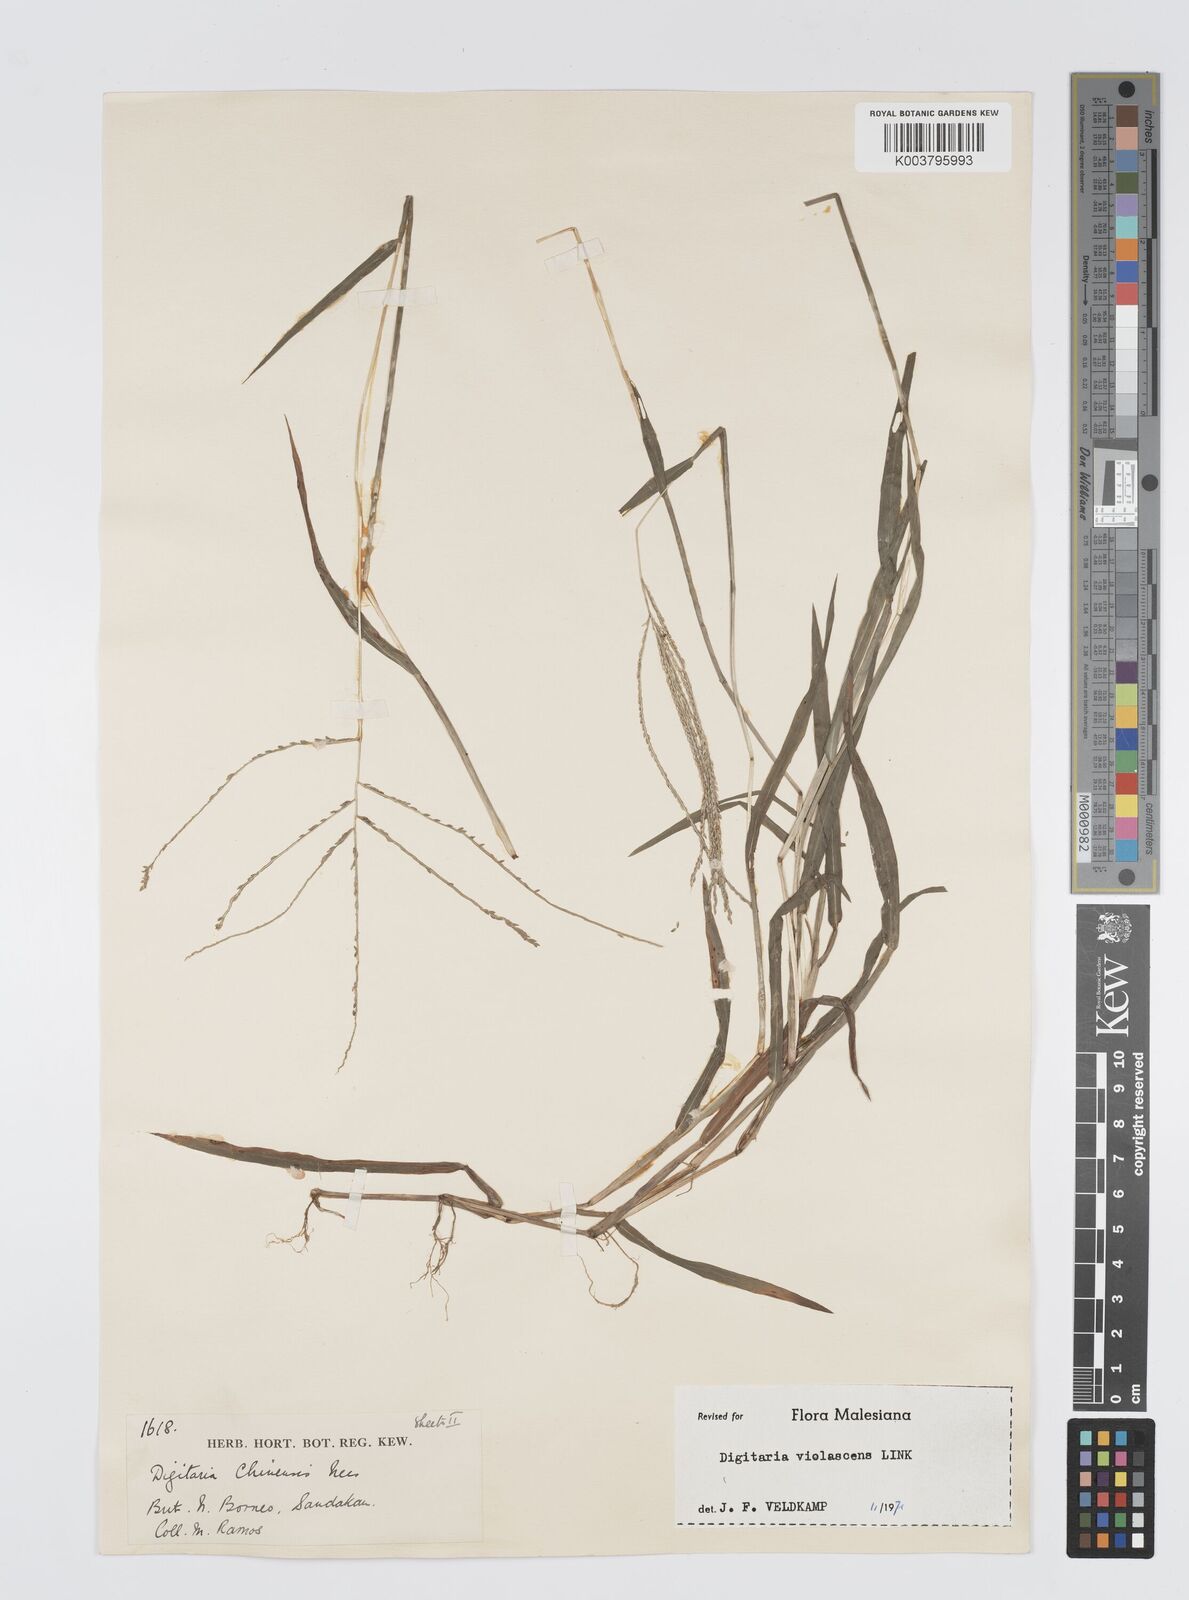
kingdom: Plantae
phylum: Tracheophyta
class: Liliopsida
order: Poales
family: Poaceae
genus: Digitaria
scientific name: Digitaria violascens
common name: Violet crabgrass
